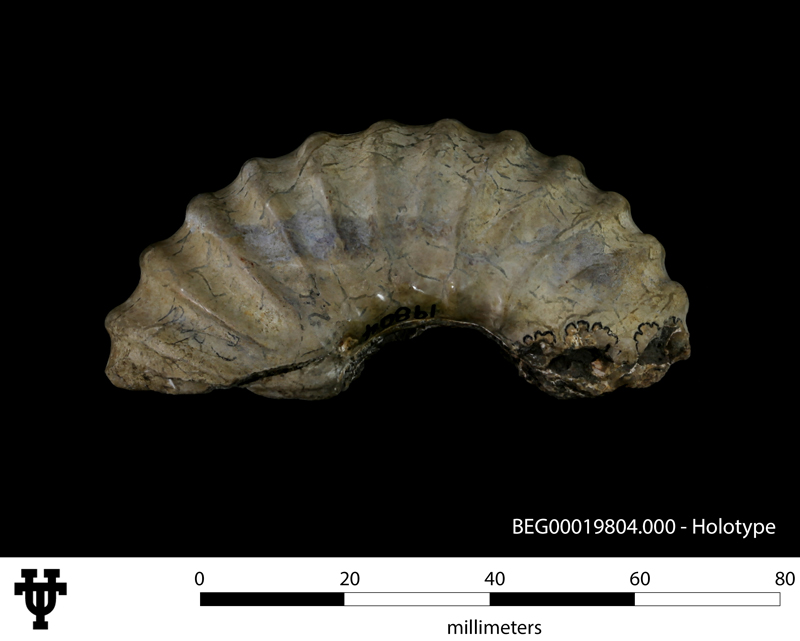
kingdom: Animalia
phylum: Mollusca
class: Cephalopoda
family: Acanthoceratidae
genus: Eucalycoceras
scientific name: Eucalycoceras
